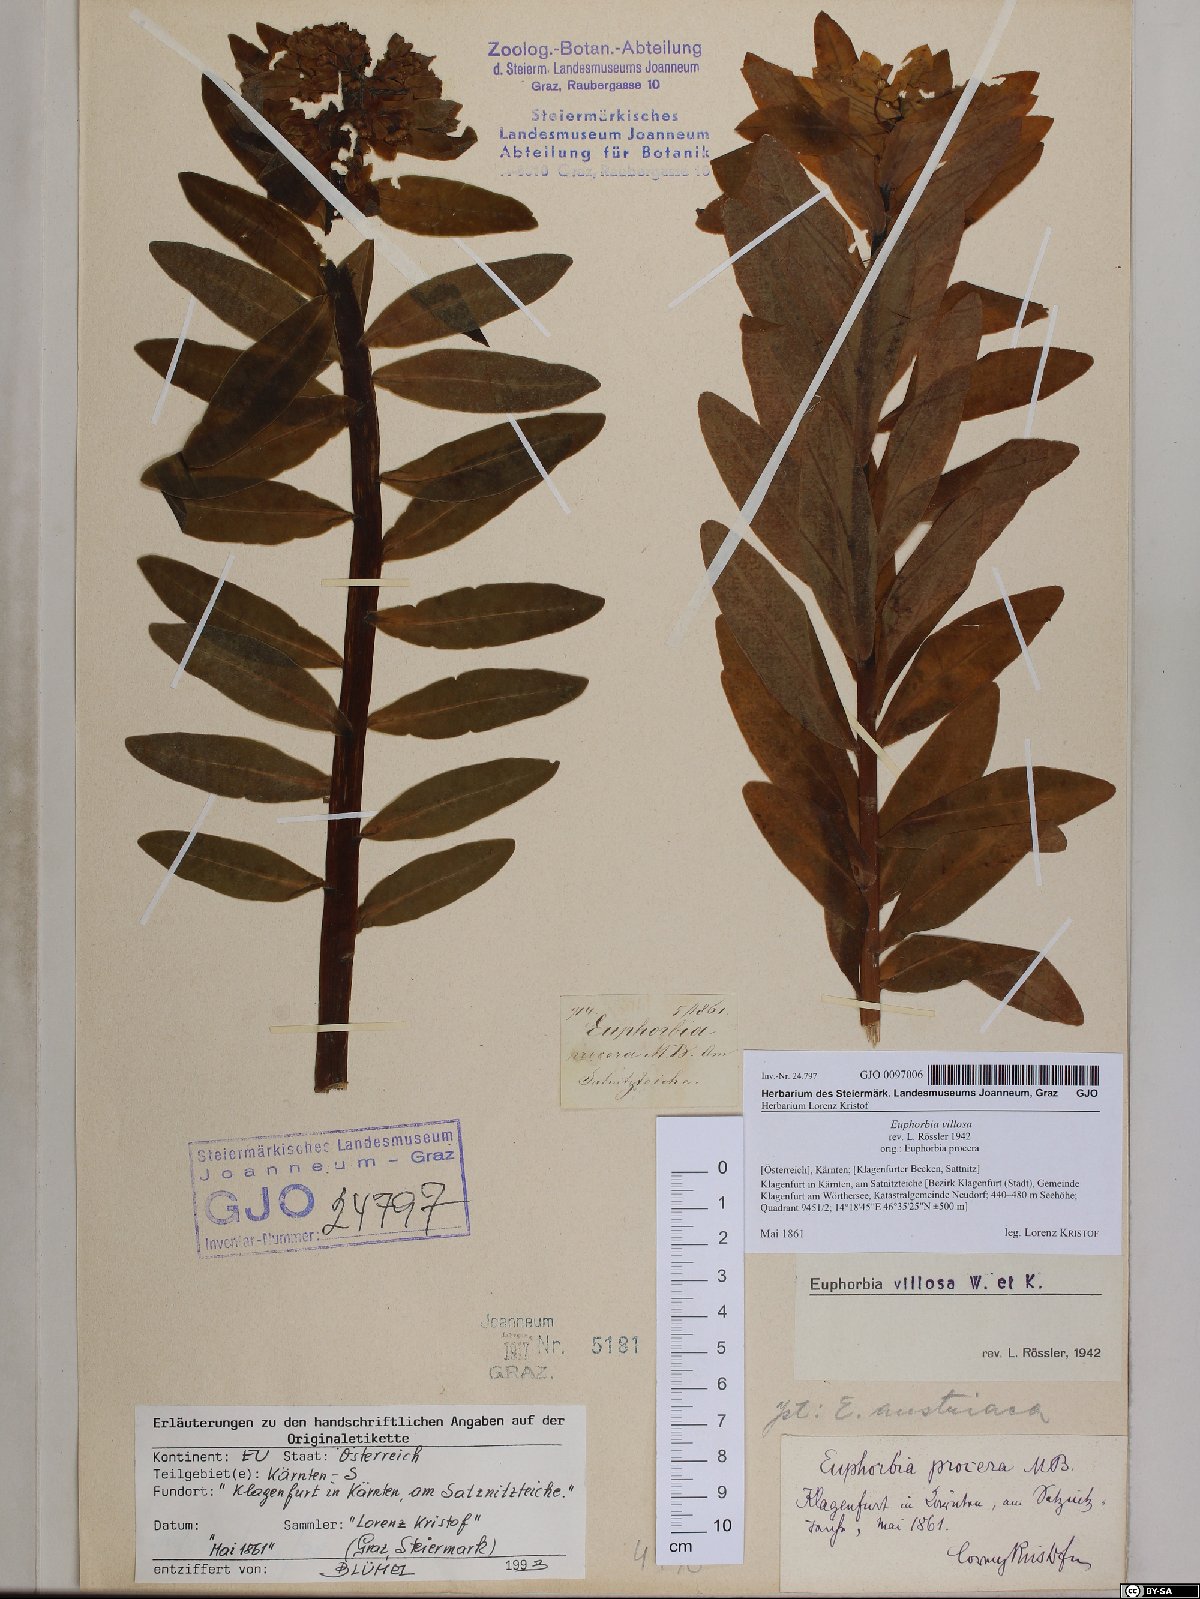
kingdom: Plantae
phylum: Tracheophyta
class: Magnoliopsida
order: Malpighiales
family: Euphorbiaceae
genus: Euphorbia
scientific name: Euphorbia illirica
